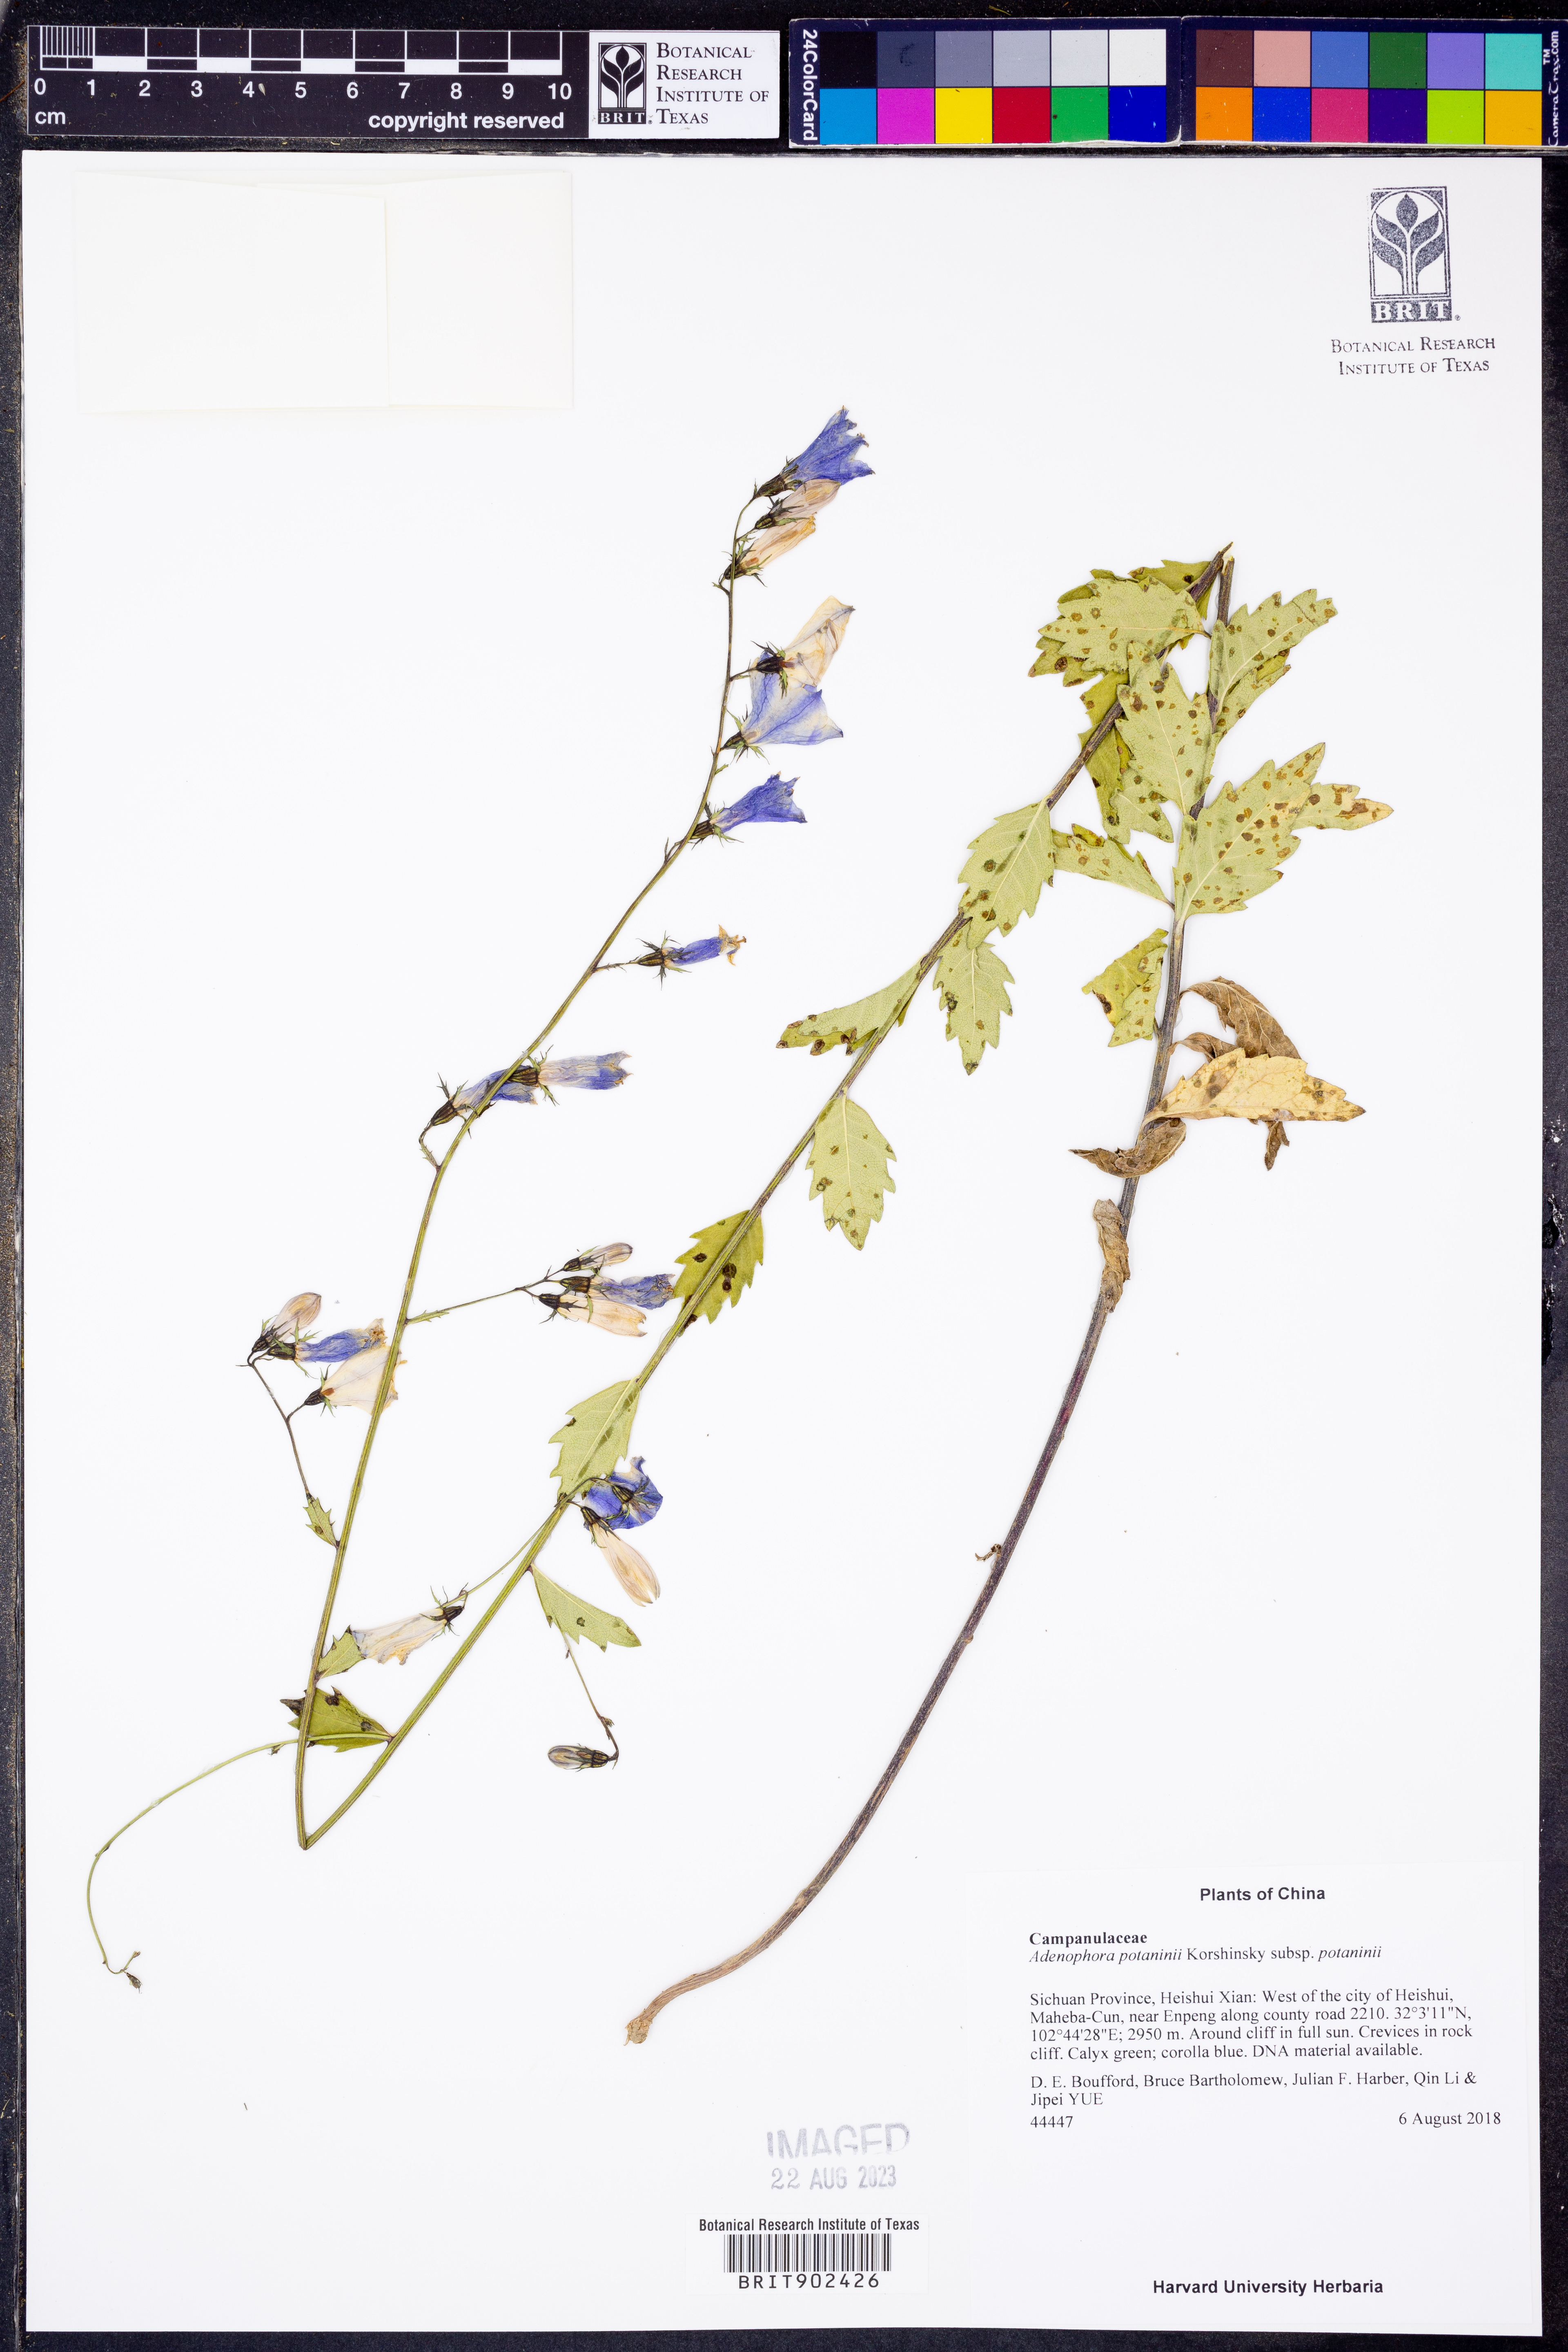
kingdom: Plantae
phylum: Tracheophyta
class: Magnoliopsida
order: Asterales
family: Campanulaceae
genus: Adenophora
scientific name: Adenophora
